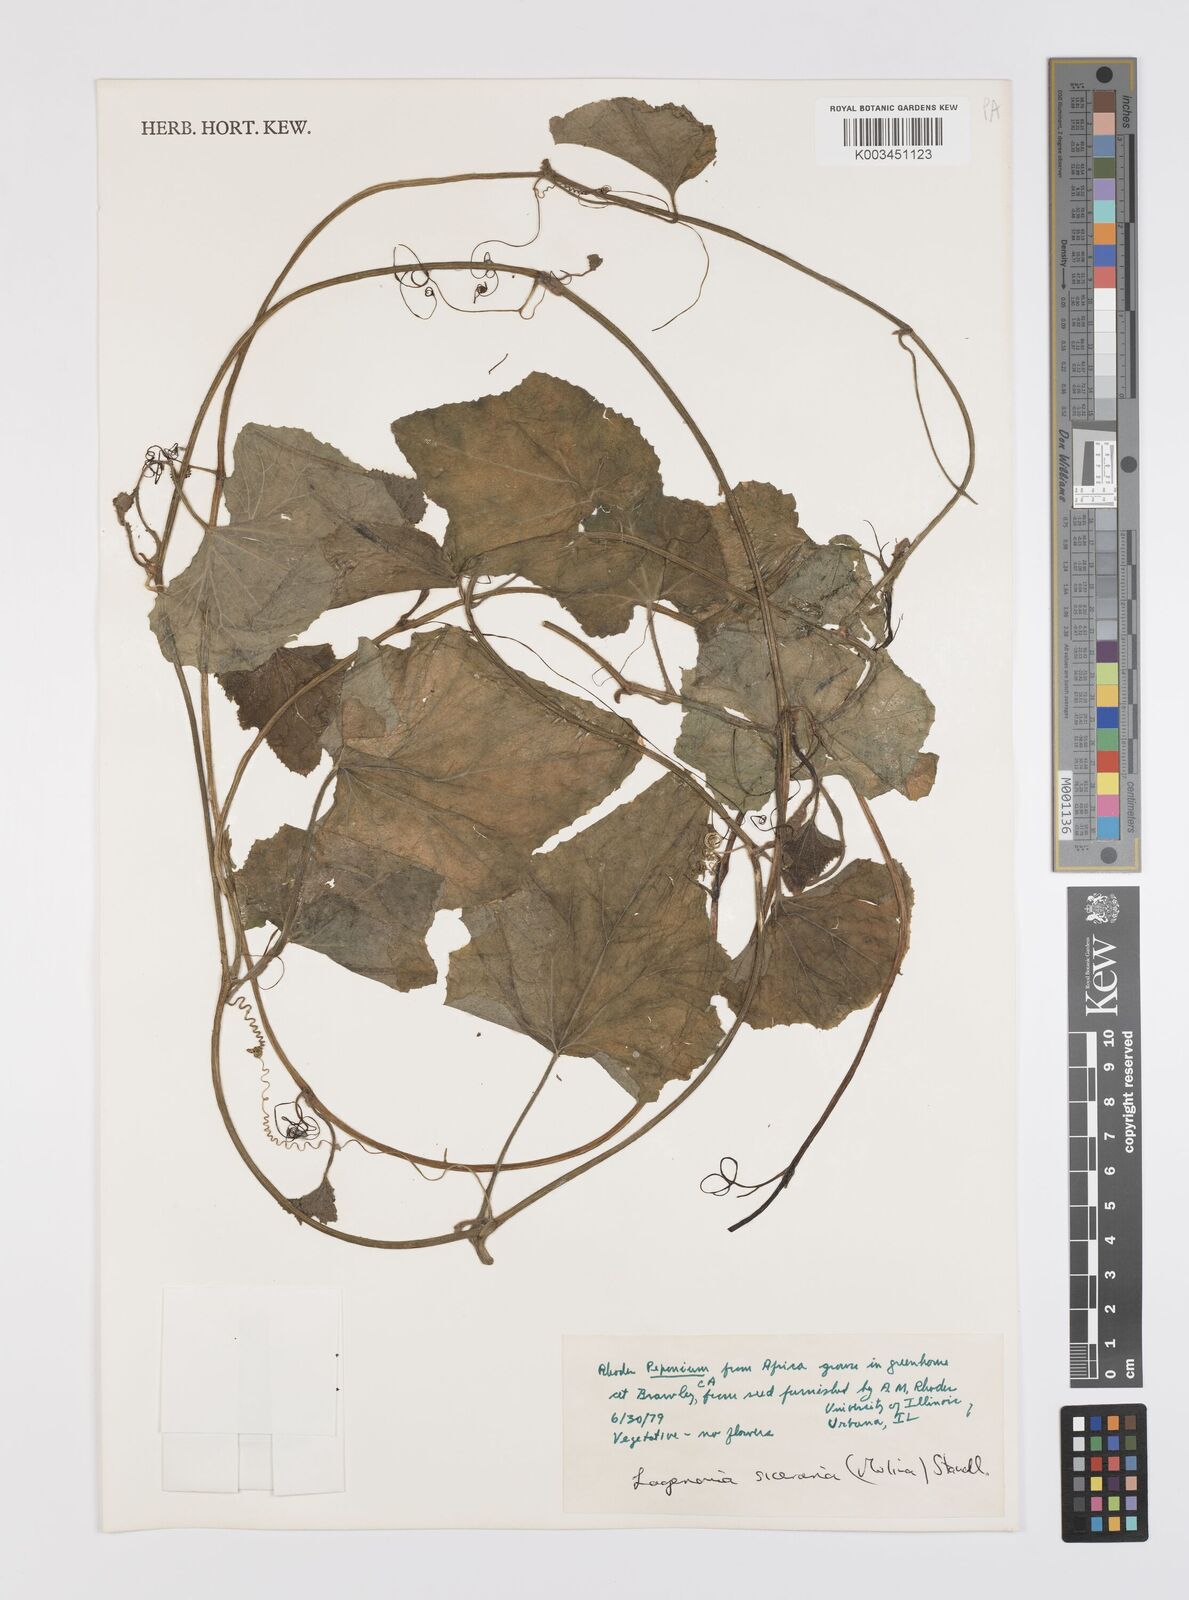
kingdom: Plantae
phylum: Tracheophyta
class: Magnoliopsida
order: Cucurbitales
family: Cucurbitaceae
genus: Lagenaria
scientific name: Lagenaria abyssinica
